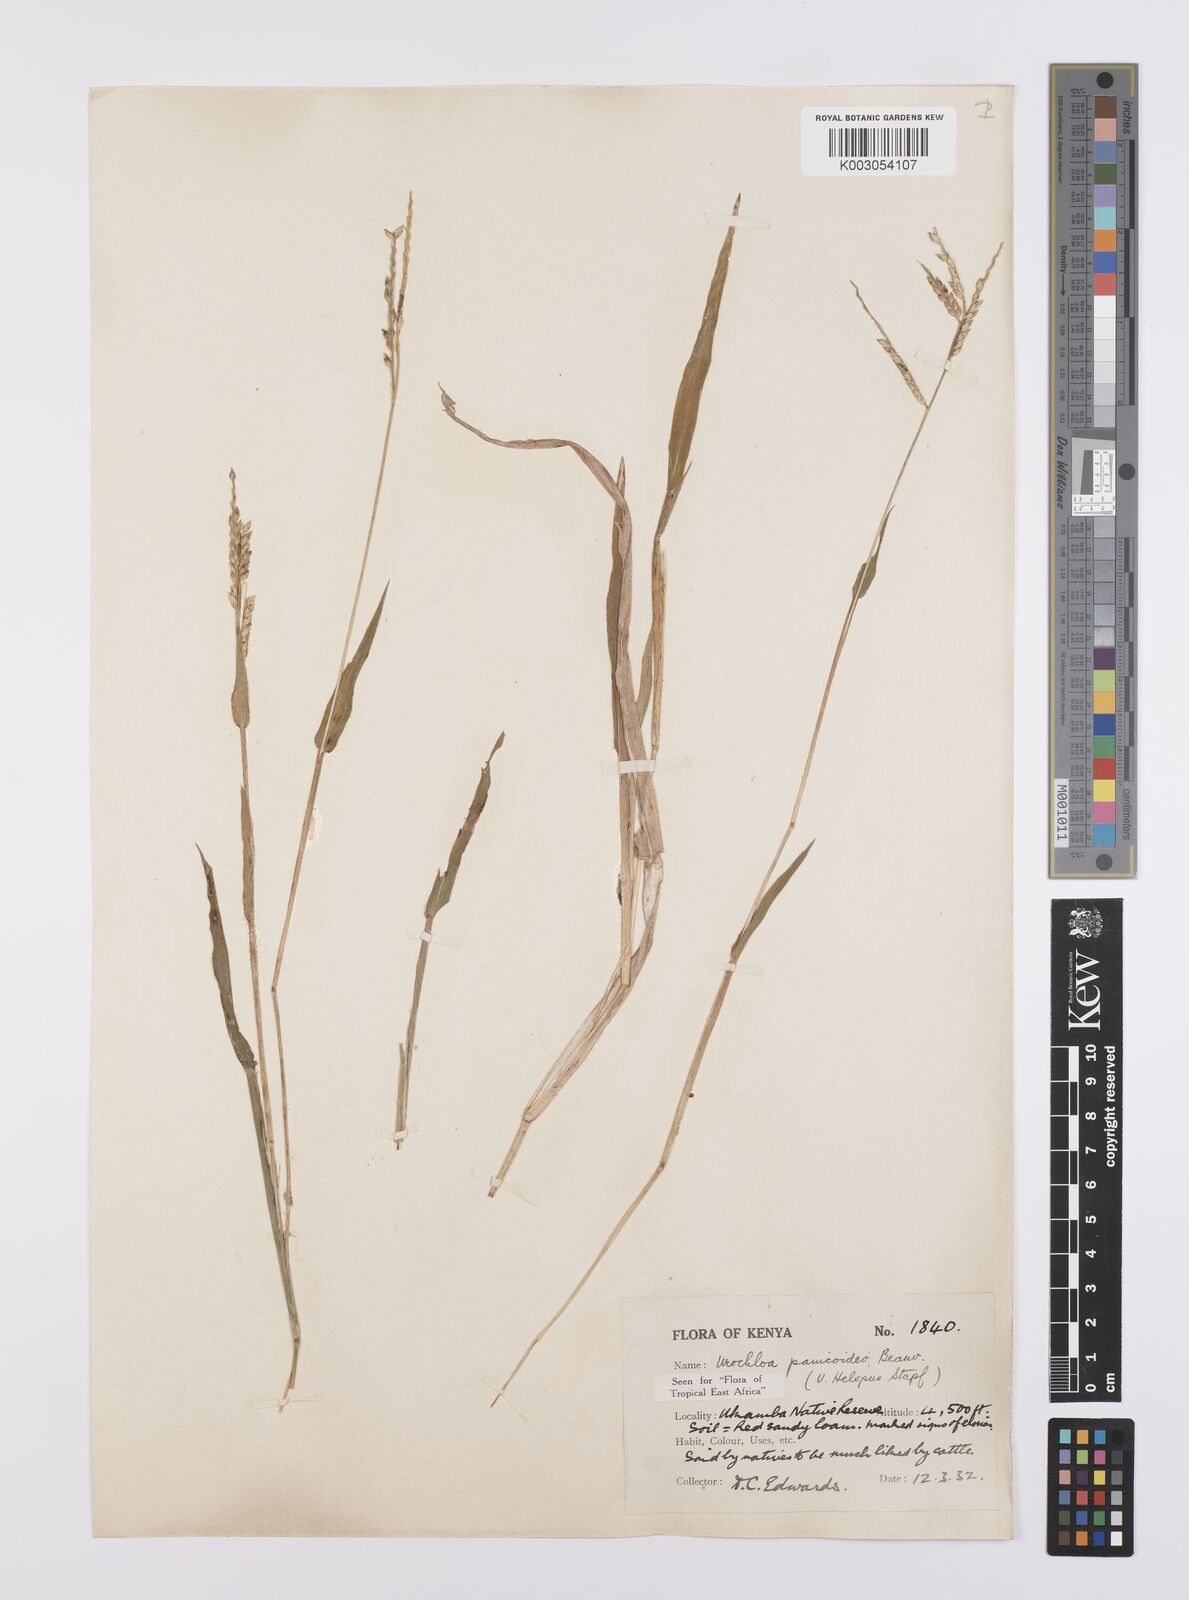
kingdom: Plantae
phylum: Tracheophyta
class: Liliopsida
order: Poales
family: Poaceae
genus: Urochloa
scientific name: Urochloa panicoides
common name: Sharp-flowered signal-grass
